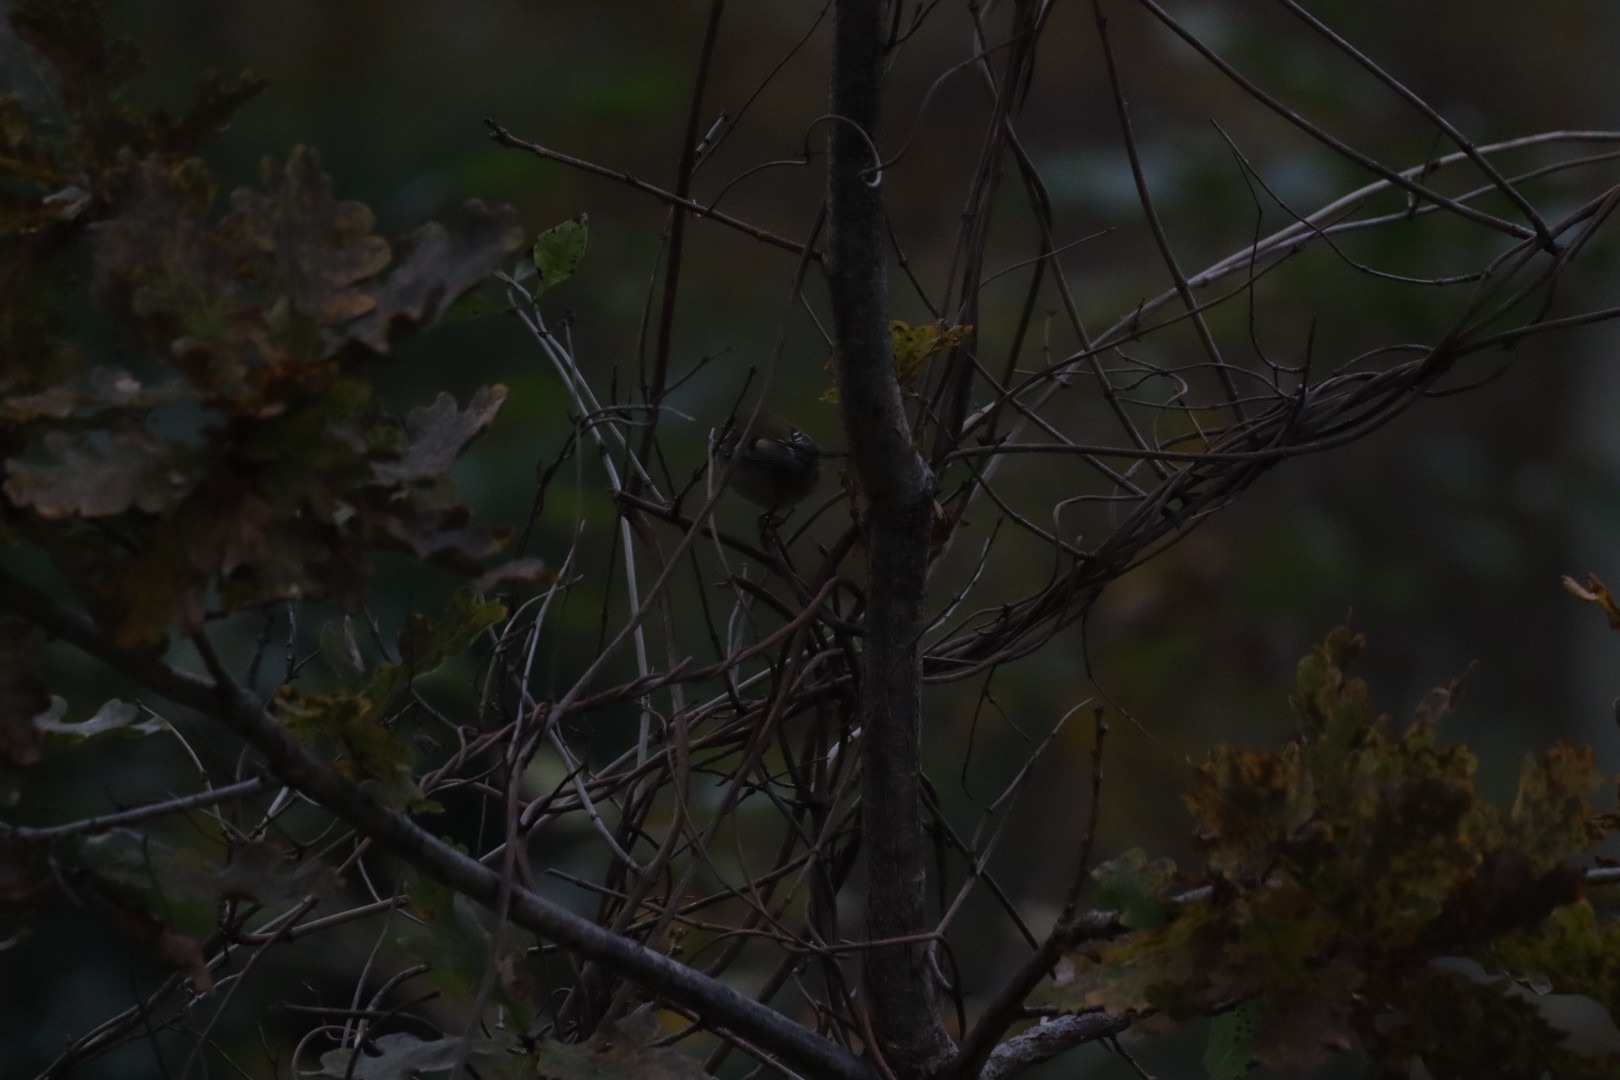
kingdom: Animalia
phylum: Chordata
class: Aves
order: Passeriformes
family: Regulidae
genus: Regulus
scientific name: Regulus regulus
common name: Fuglekonge
